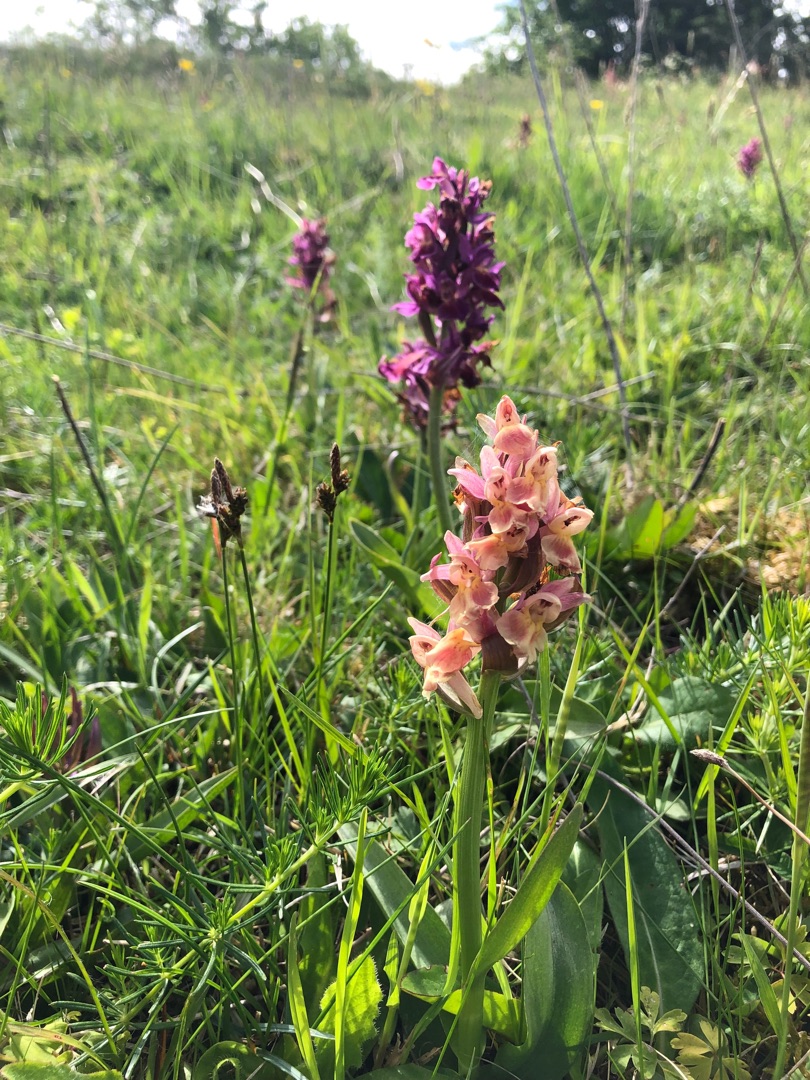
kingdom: Plantae
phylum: Tracheophyta
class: Liliopsida
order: Asparagales
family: Orchidaceae
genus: Dactylorhiza
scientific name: Dactylorhiza sambucina
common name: Hylde-gøgeurt
